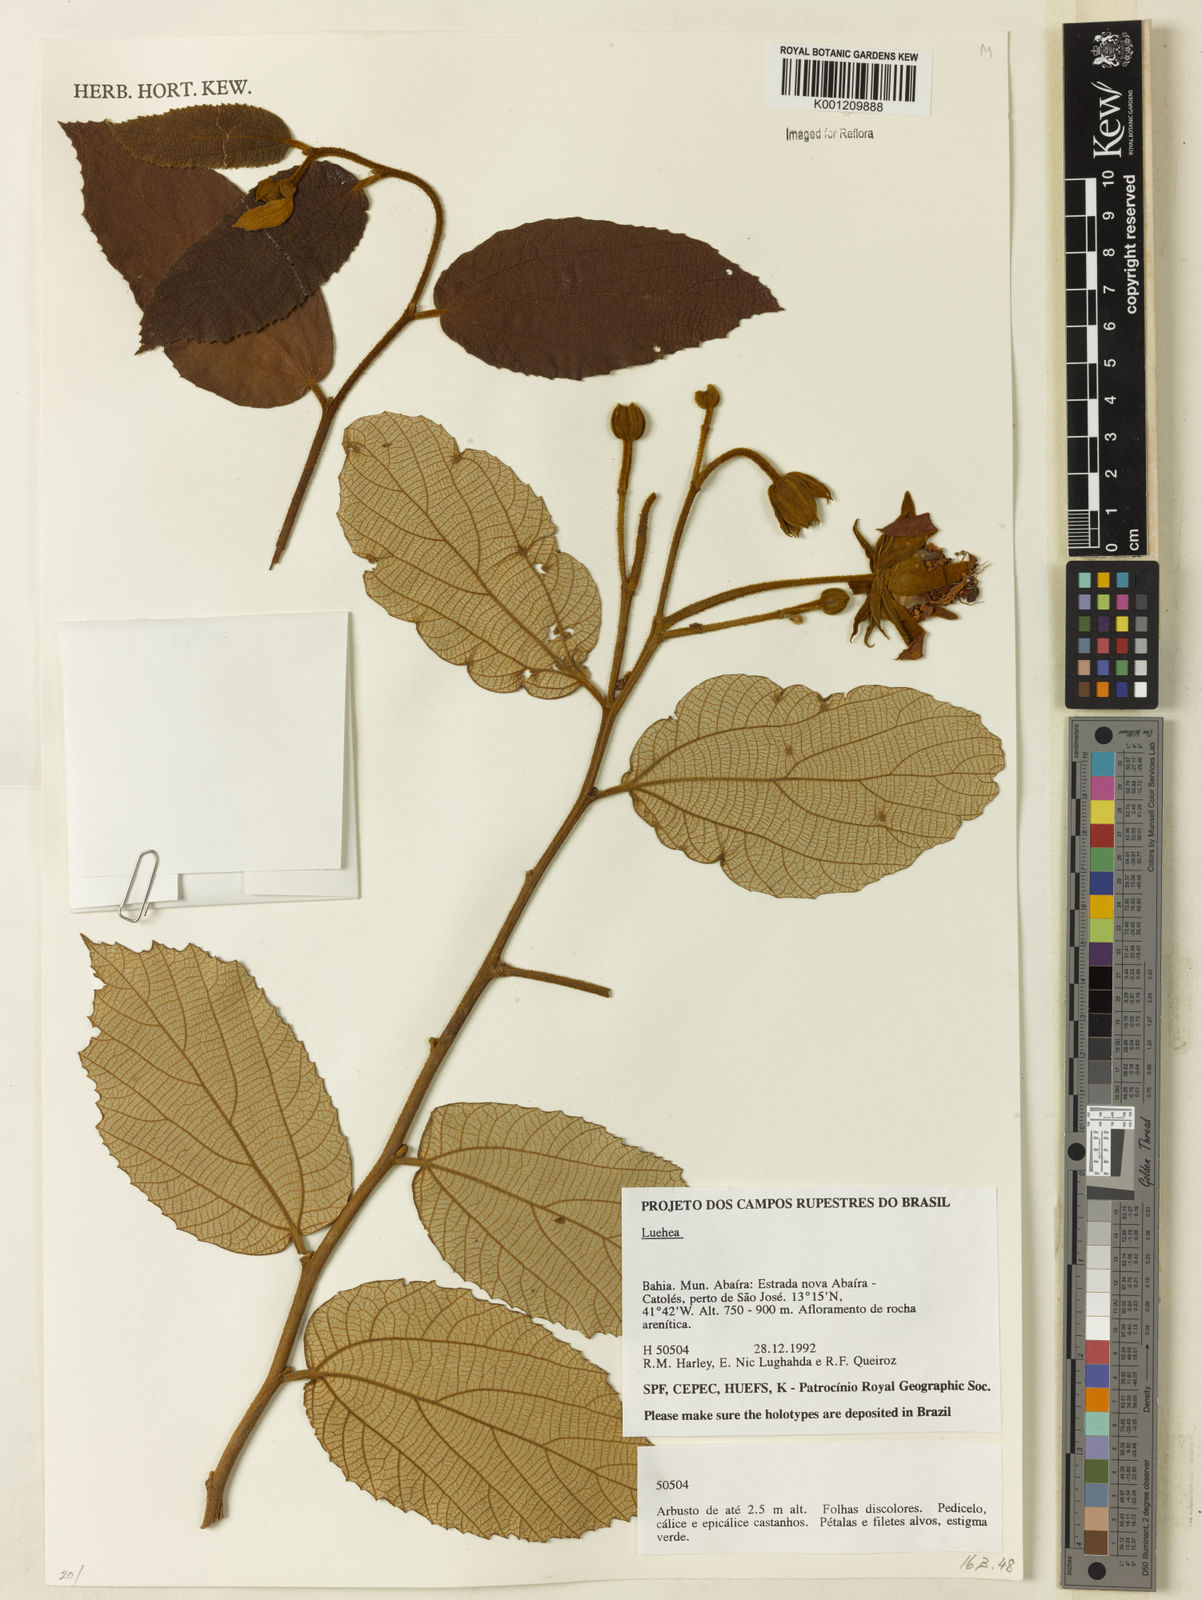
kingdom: Plantae
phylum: Tracheophyta
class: Magnoliopsida
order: Malvales
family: Malvaceae
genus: Luehea
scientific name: Luehea
